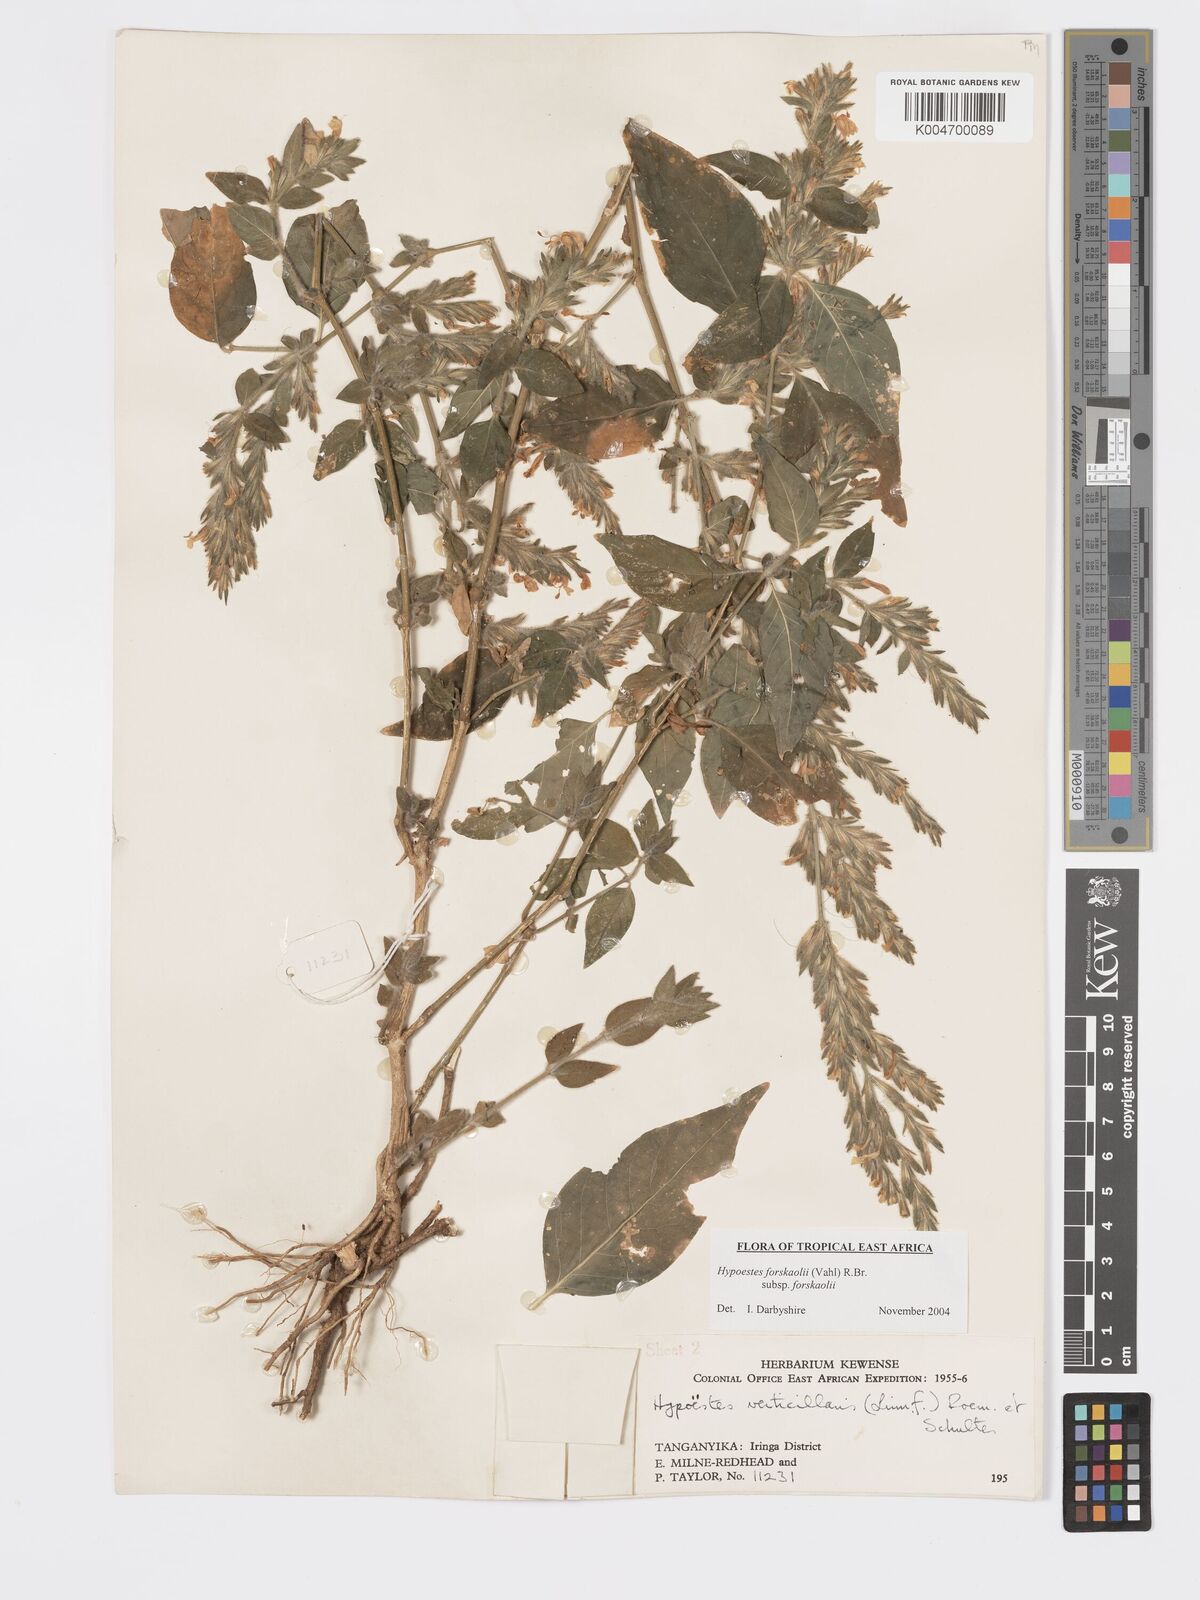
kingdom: Plantae
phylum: Tracheophyta
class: Magnoliopsida
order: Lamiales
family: Acanthaceae
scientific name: Acanthaceae
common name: Acanthaceae
